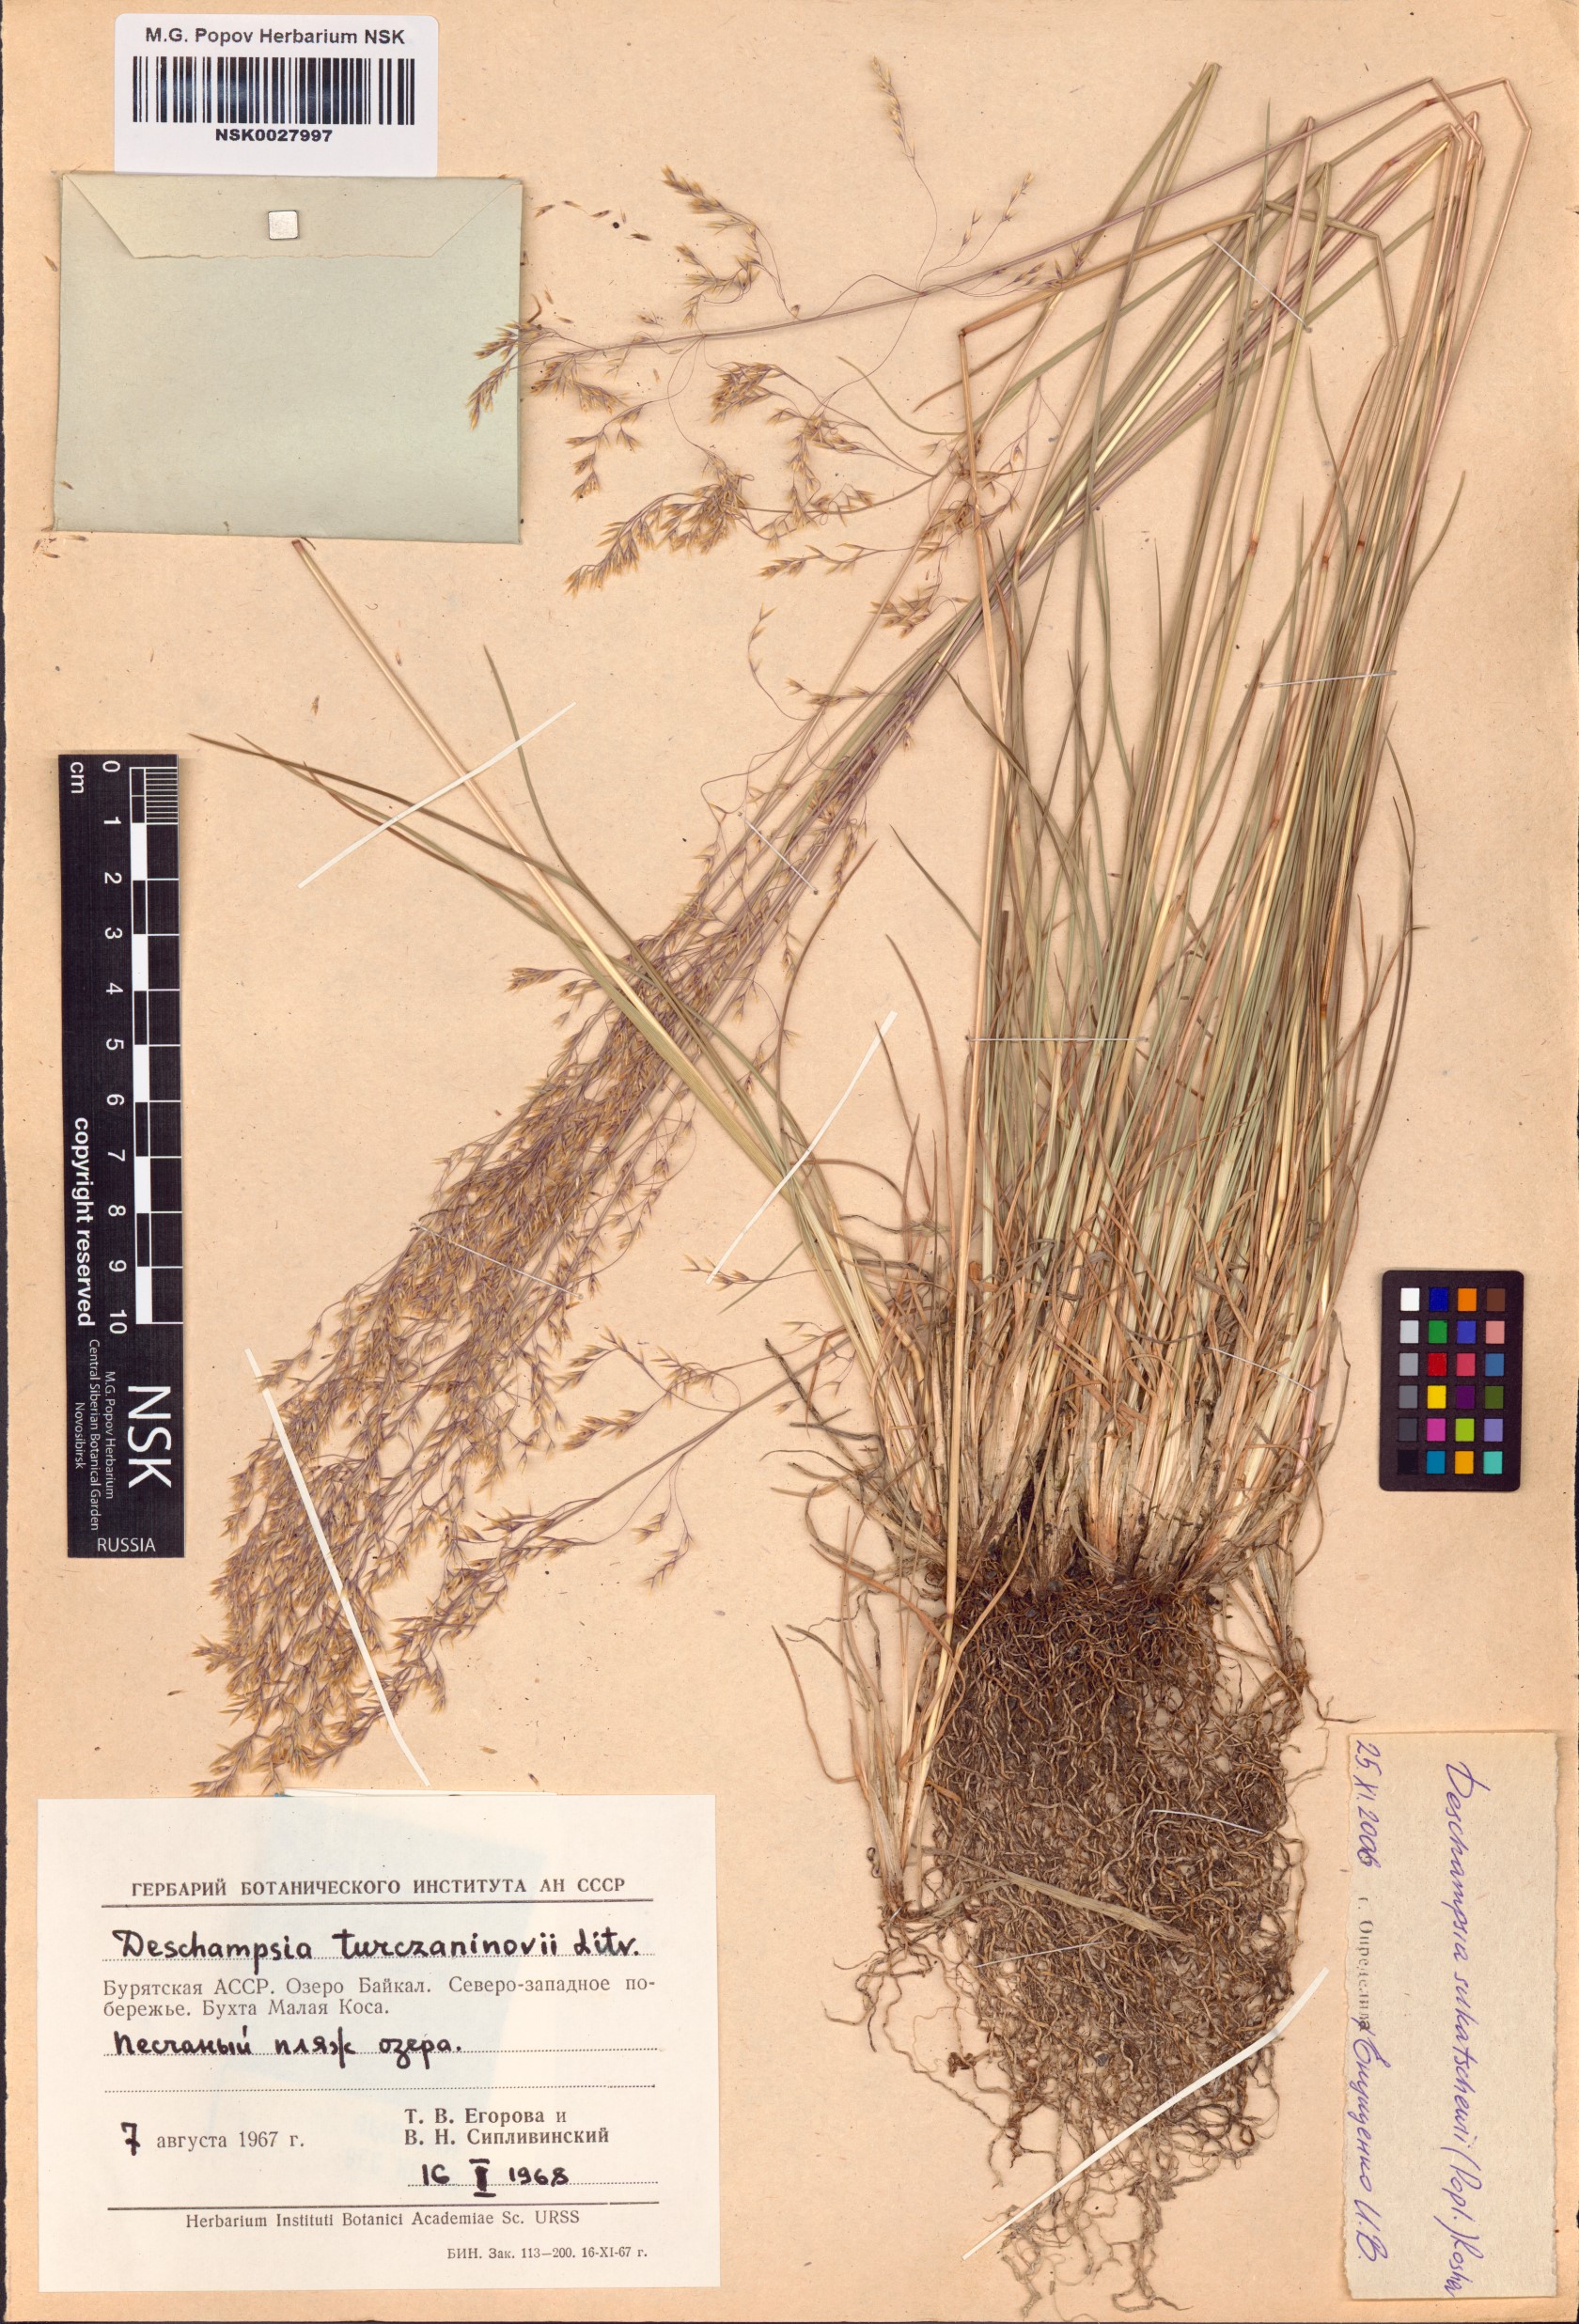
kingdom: Plantae
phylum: Tracheophyta
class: Liliopsida
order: Poales
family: Poaceae
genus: Deschampsia
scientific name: Deschampsia cespitosa
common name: Tufted hair-grass
